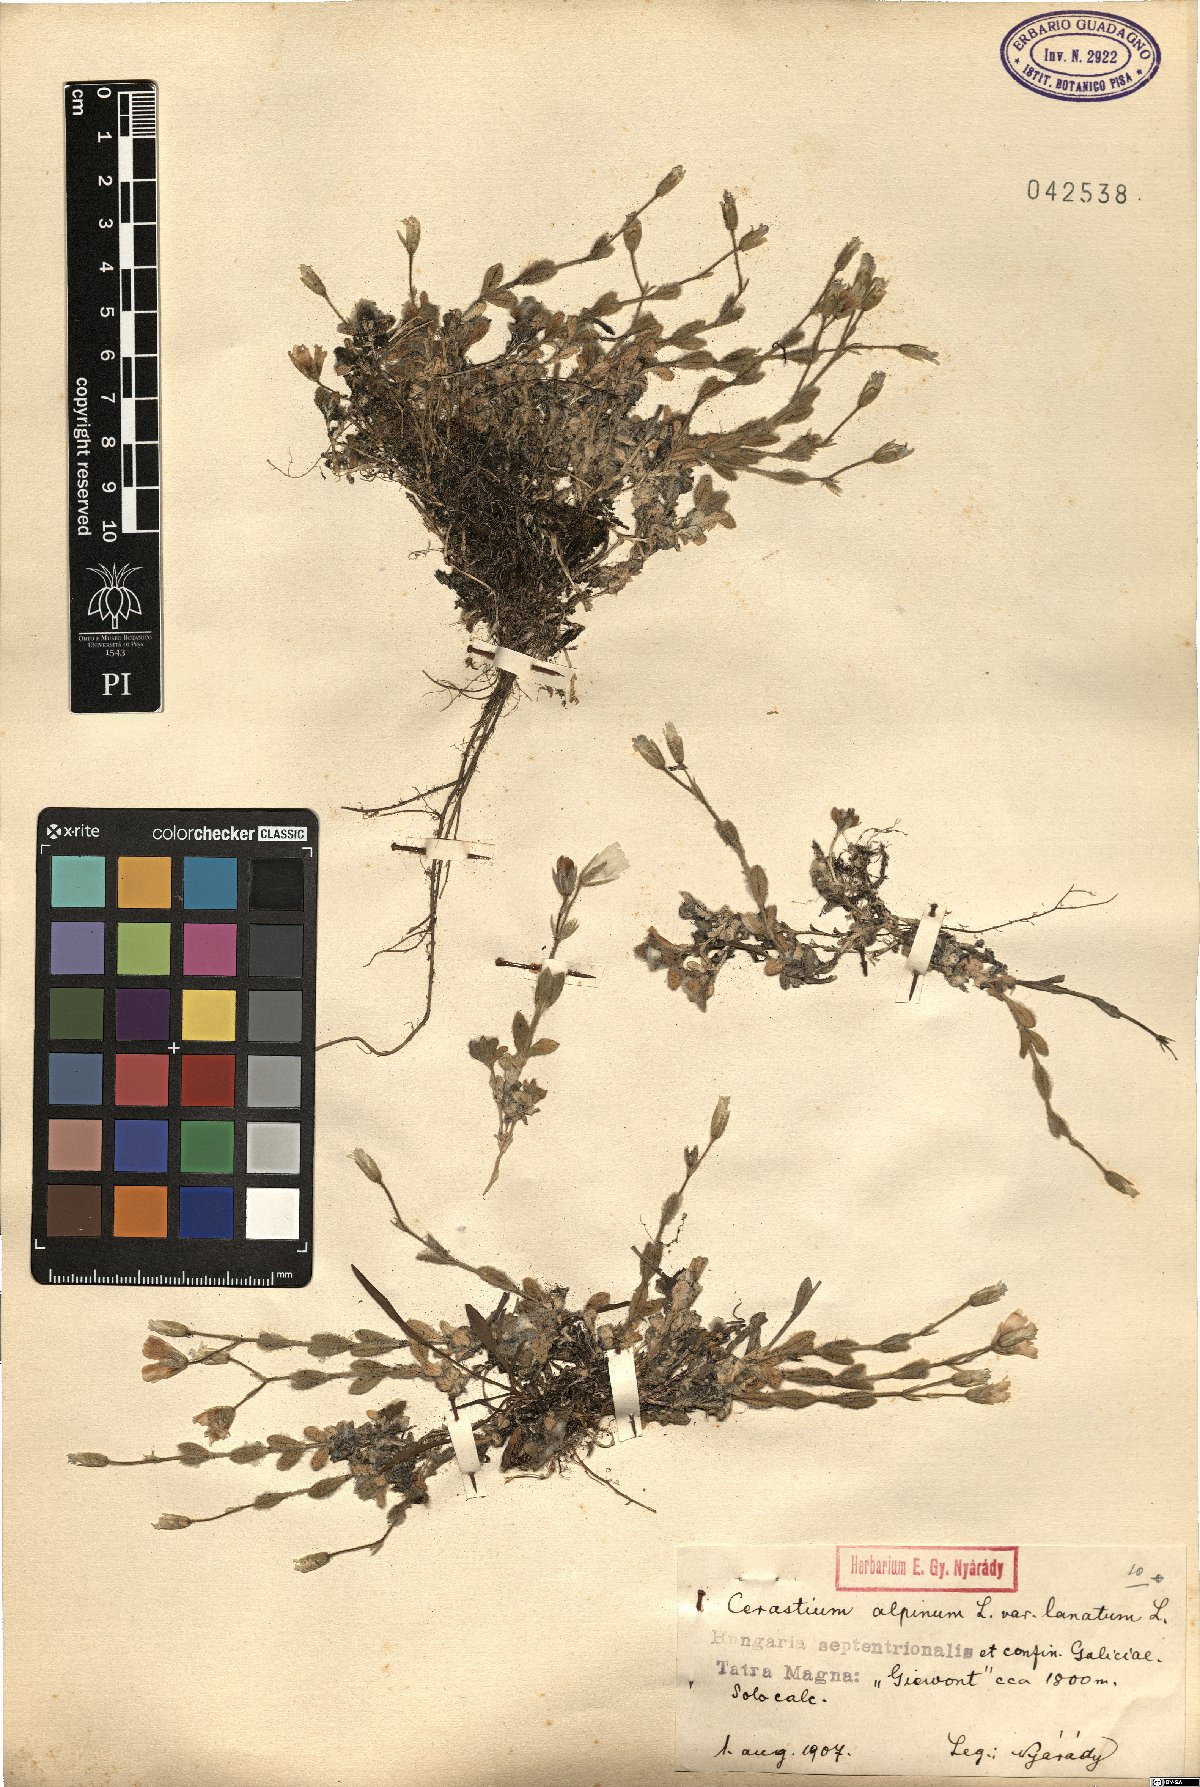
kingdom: Plantae
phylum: Tracheophyta
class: Magnoliopsida
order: Caryophyllales
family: Caryophyllaceae
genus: Cerastium
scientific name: Cerastium alpinum
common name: Alpine mouse-ear
